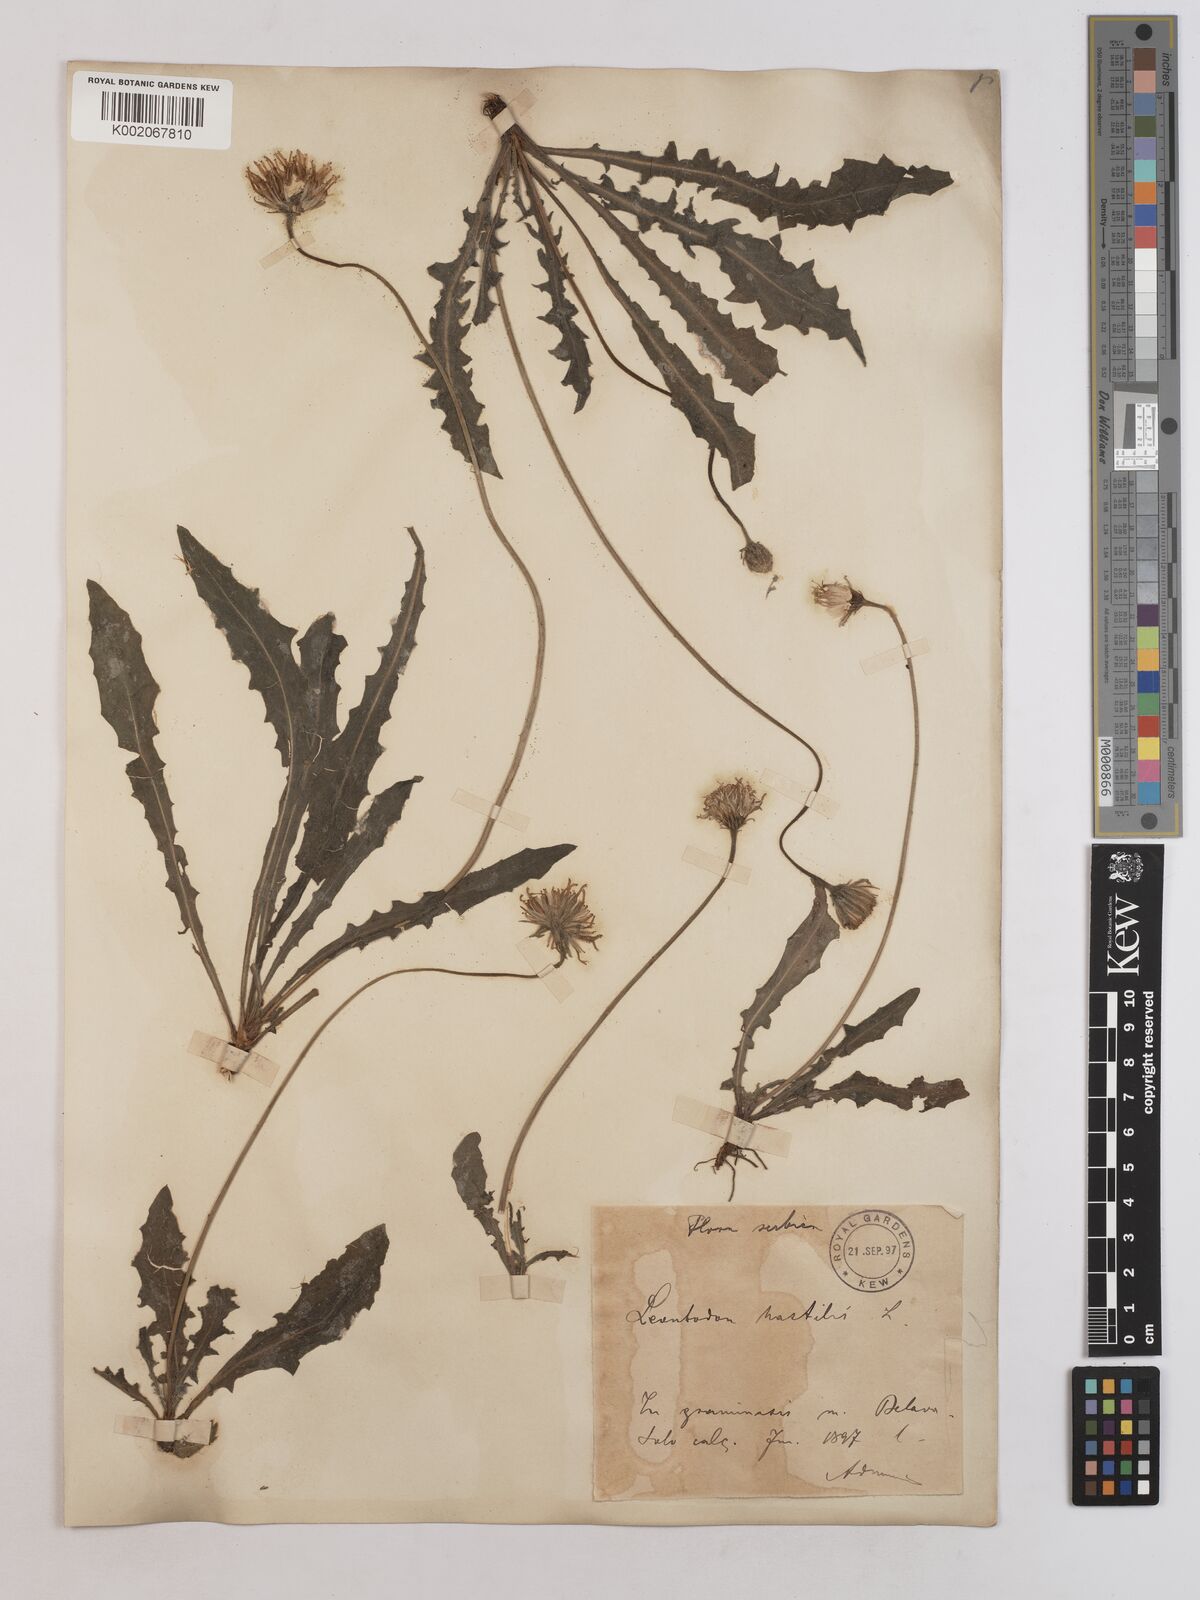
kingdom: Plantae
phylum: Tracheophyta
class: Magnoliopsida
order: Asterales
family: Asteraceae
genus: Leontodon
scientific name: Leontodon hispidus
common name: Rough hawkbit
